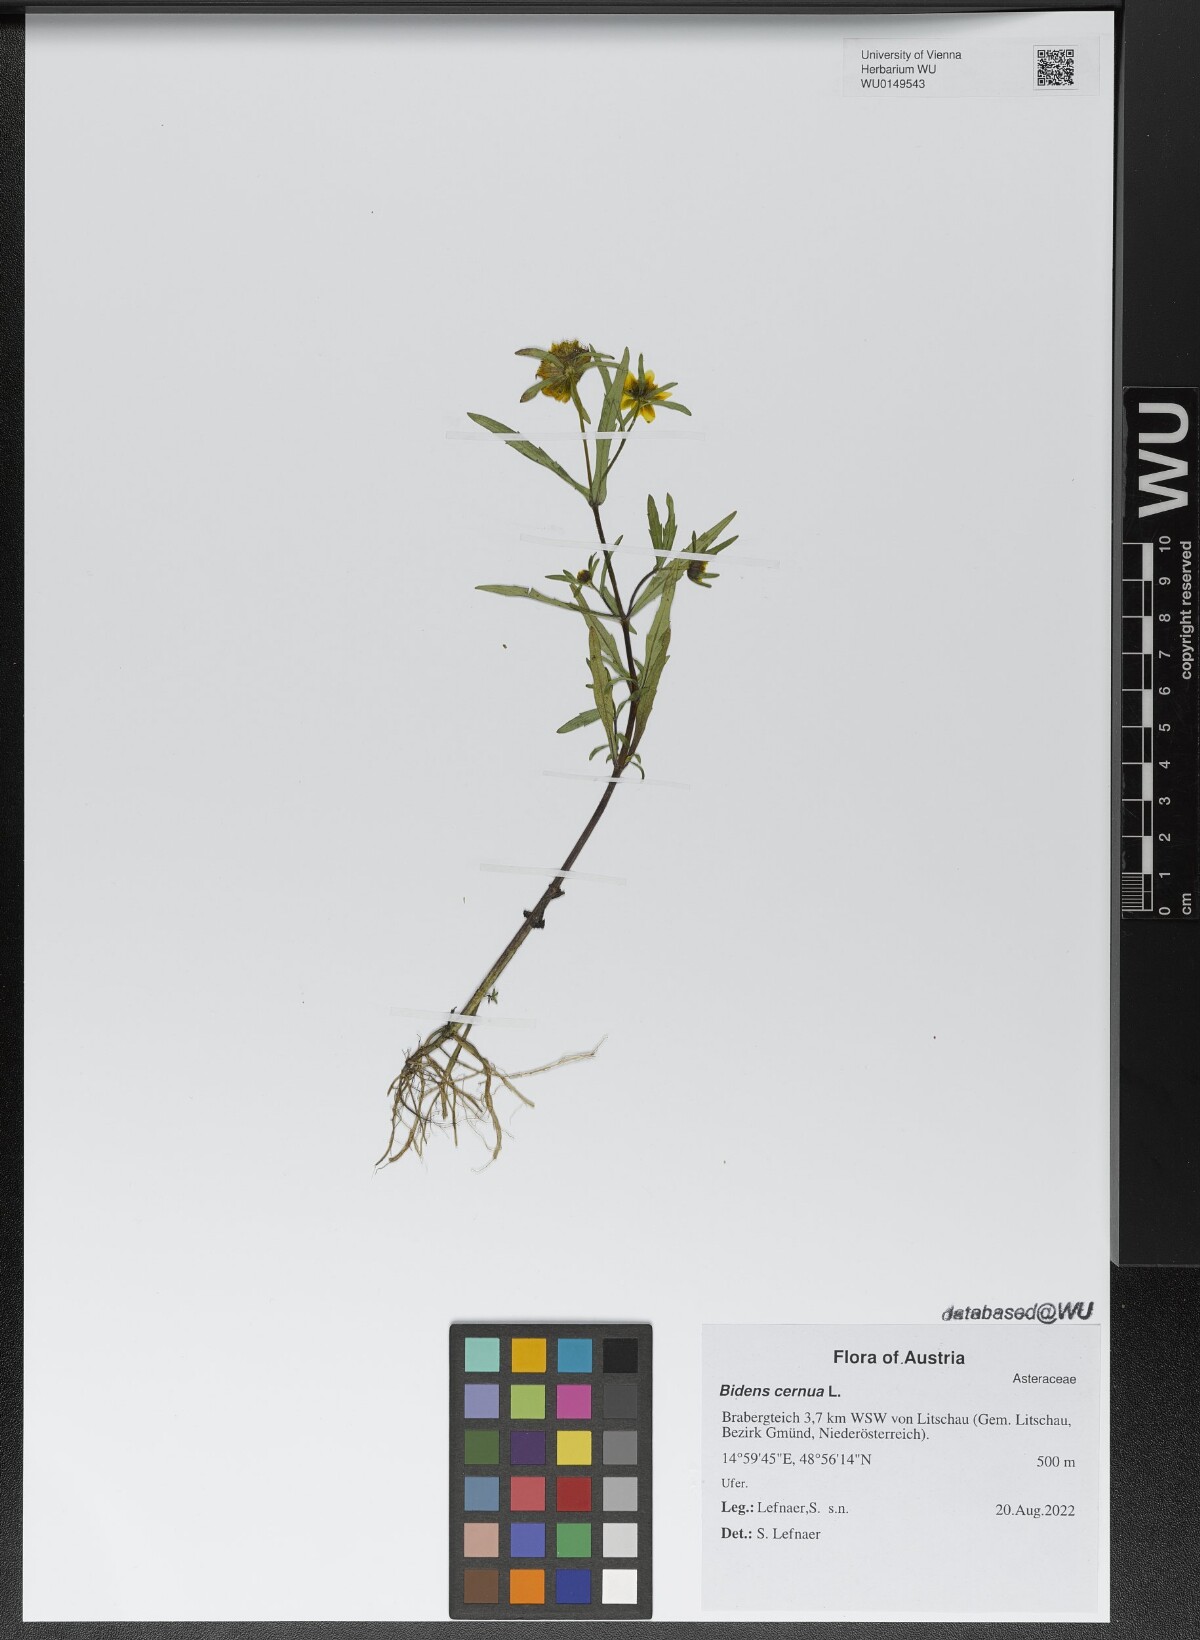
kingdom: Plantae
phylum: Tracheophyta
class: Magnoliopsida
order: Asterales
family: Asteraceae
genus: Bidens
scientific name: Bidens cernua
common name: Nodding bur-marigold
